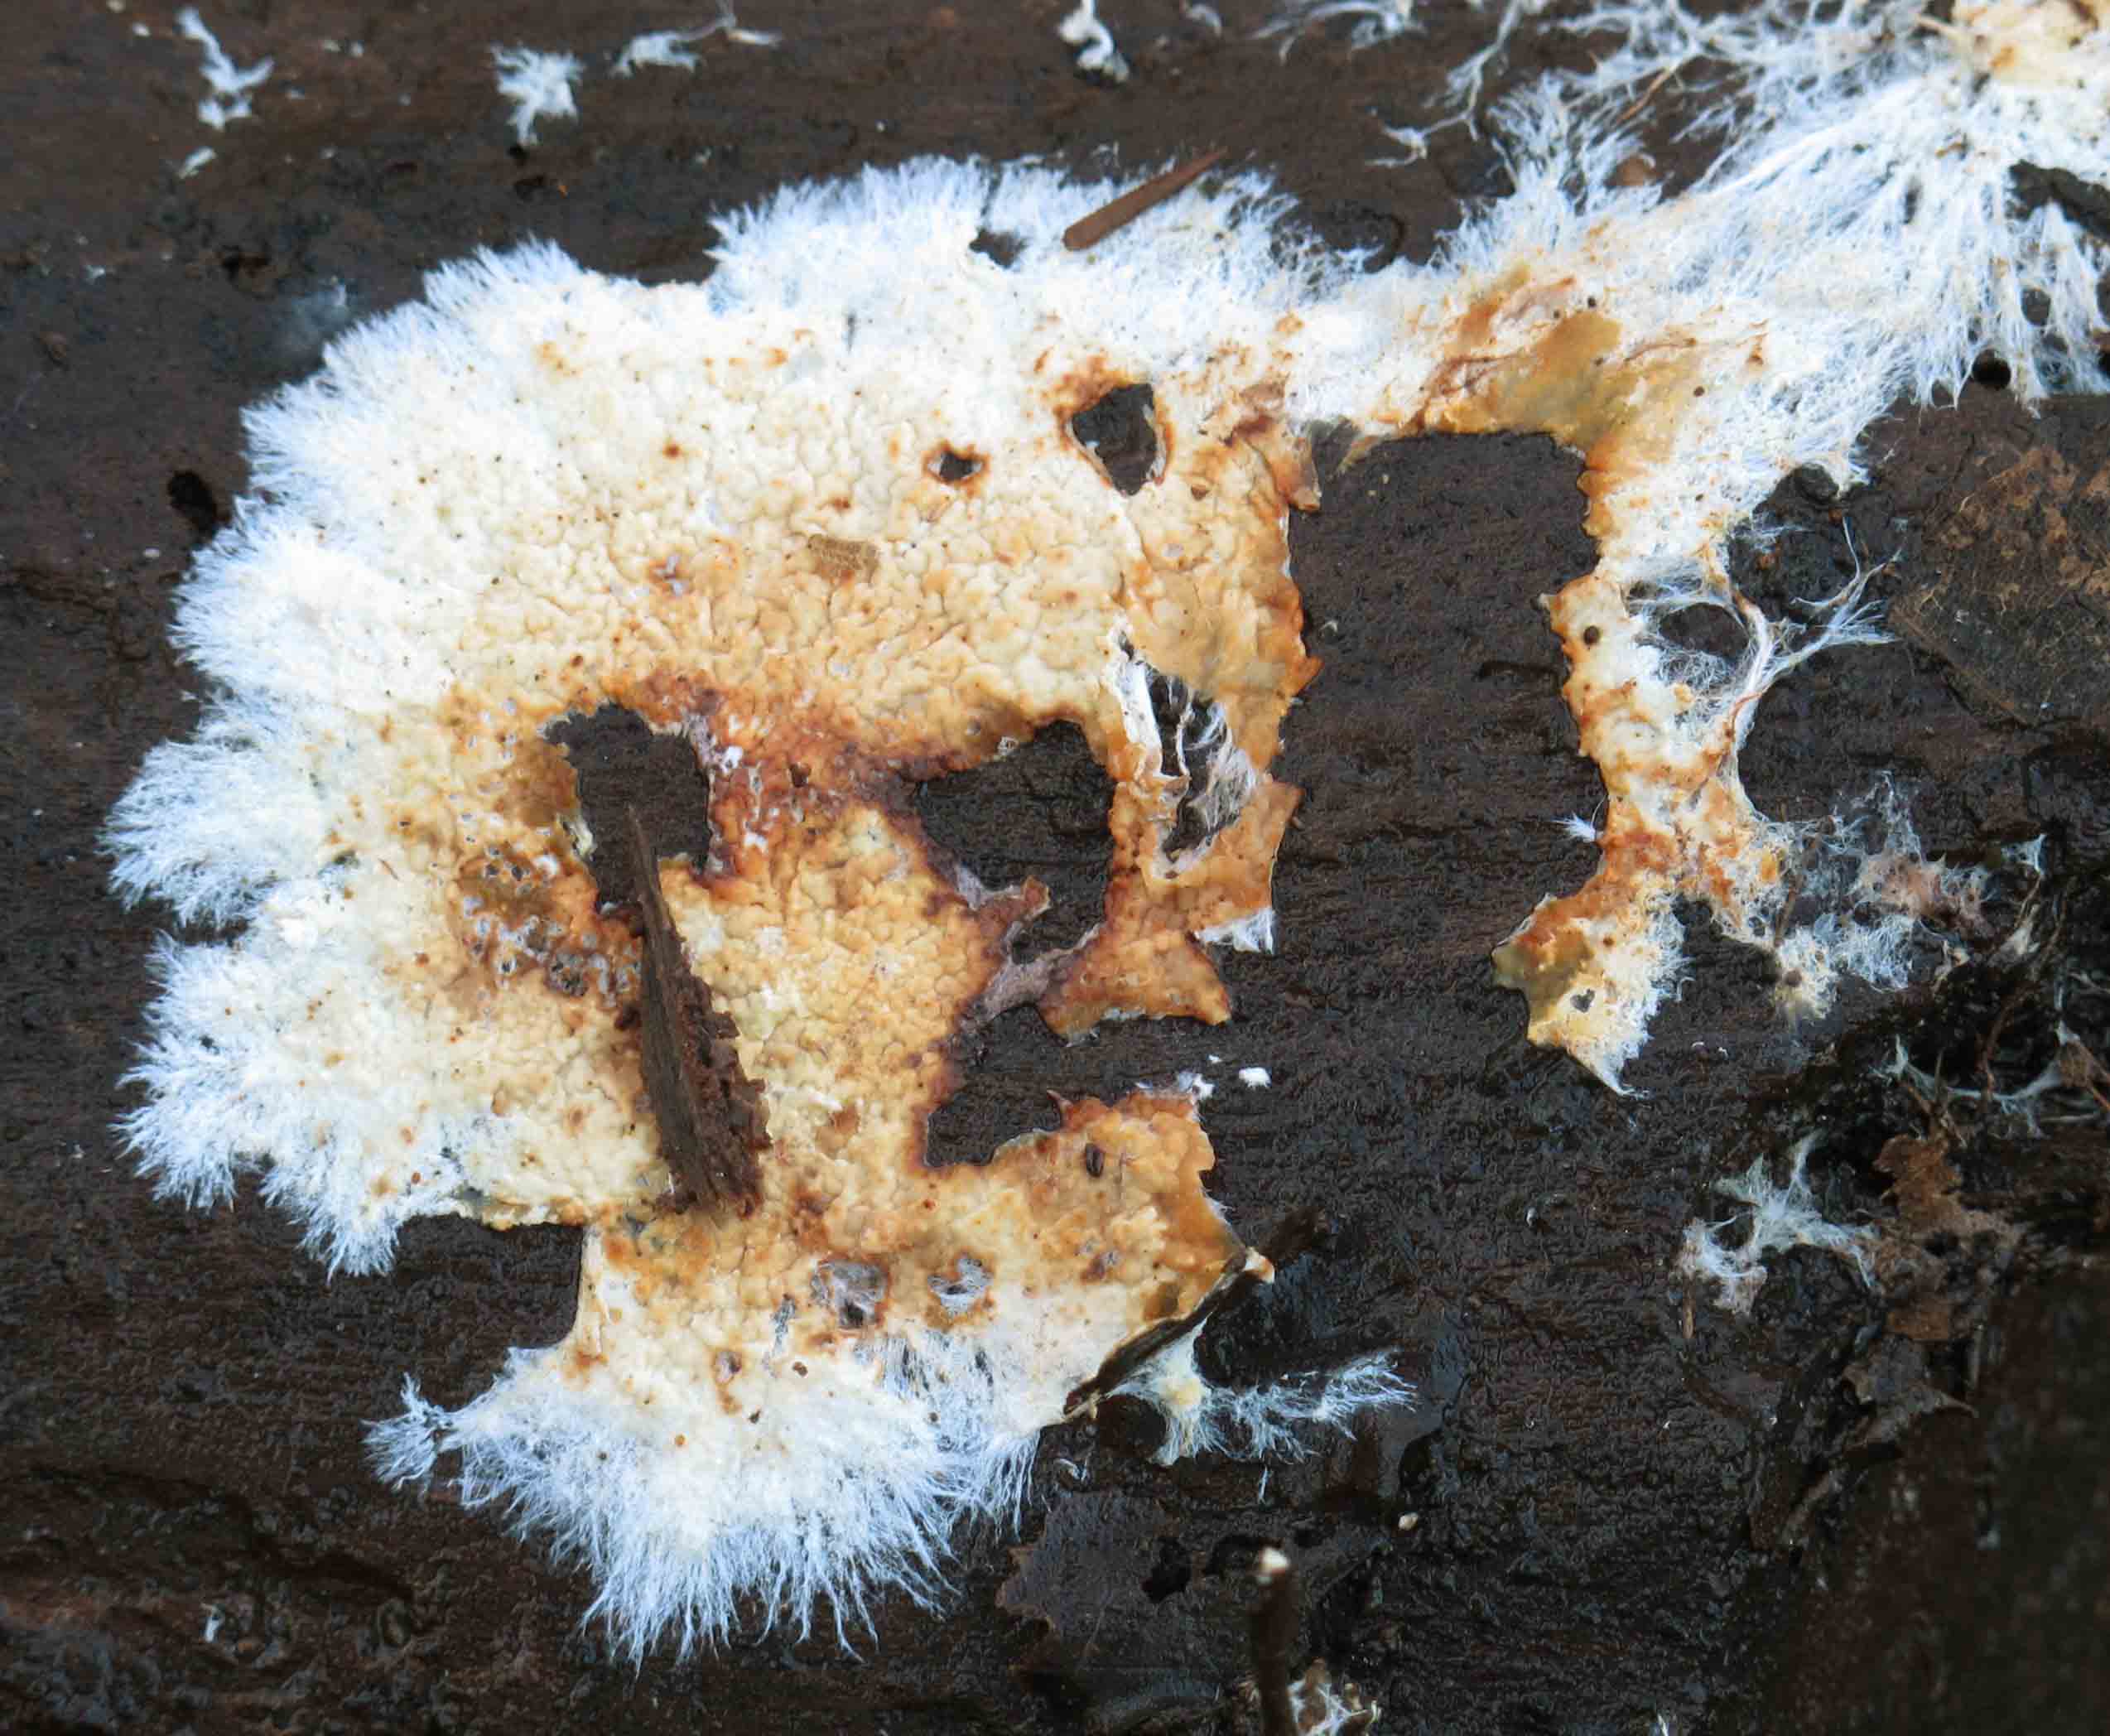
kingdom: Fungi
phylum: Basidiomycota
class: Agaricomycetes
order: Polyporales
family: Phanerochaetaceae
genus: Phanerochaete
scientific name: Phanerochaete velutina
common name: dunet randtråd
